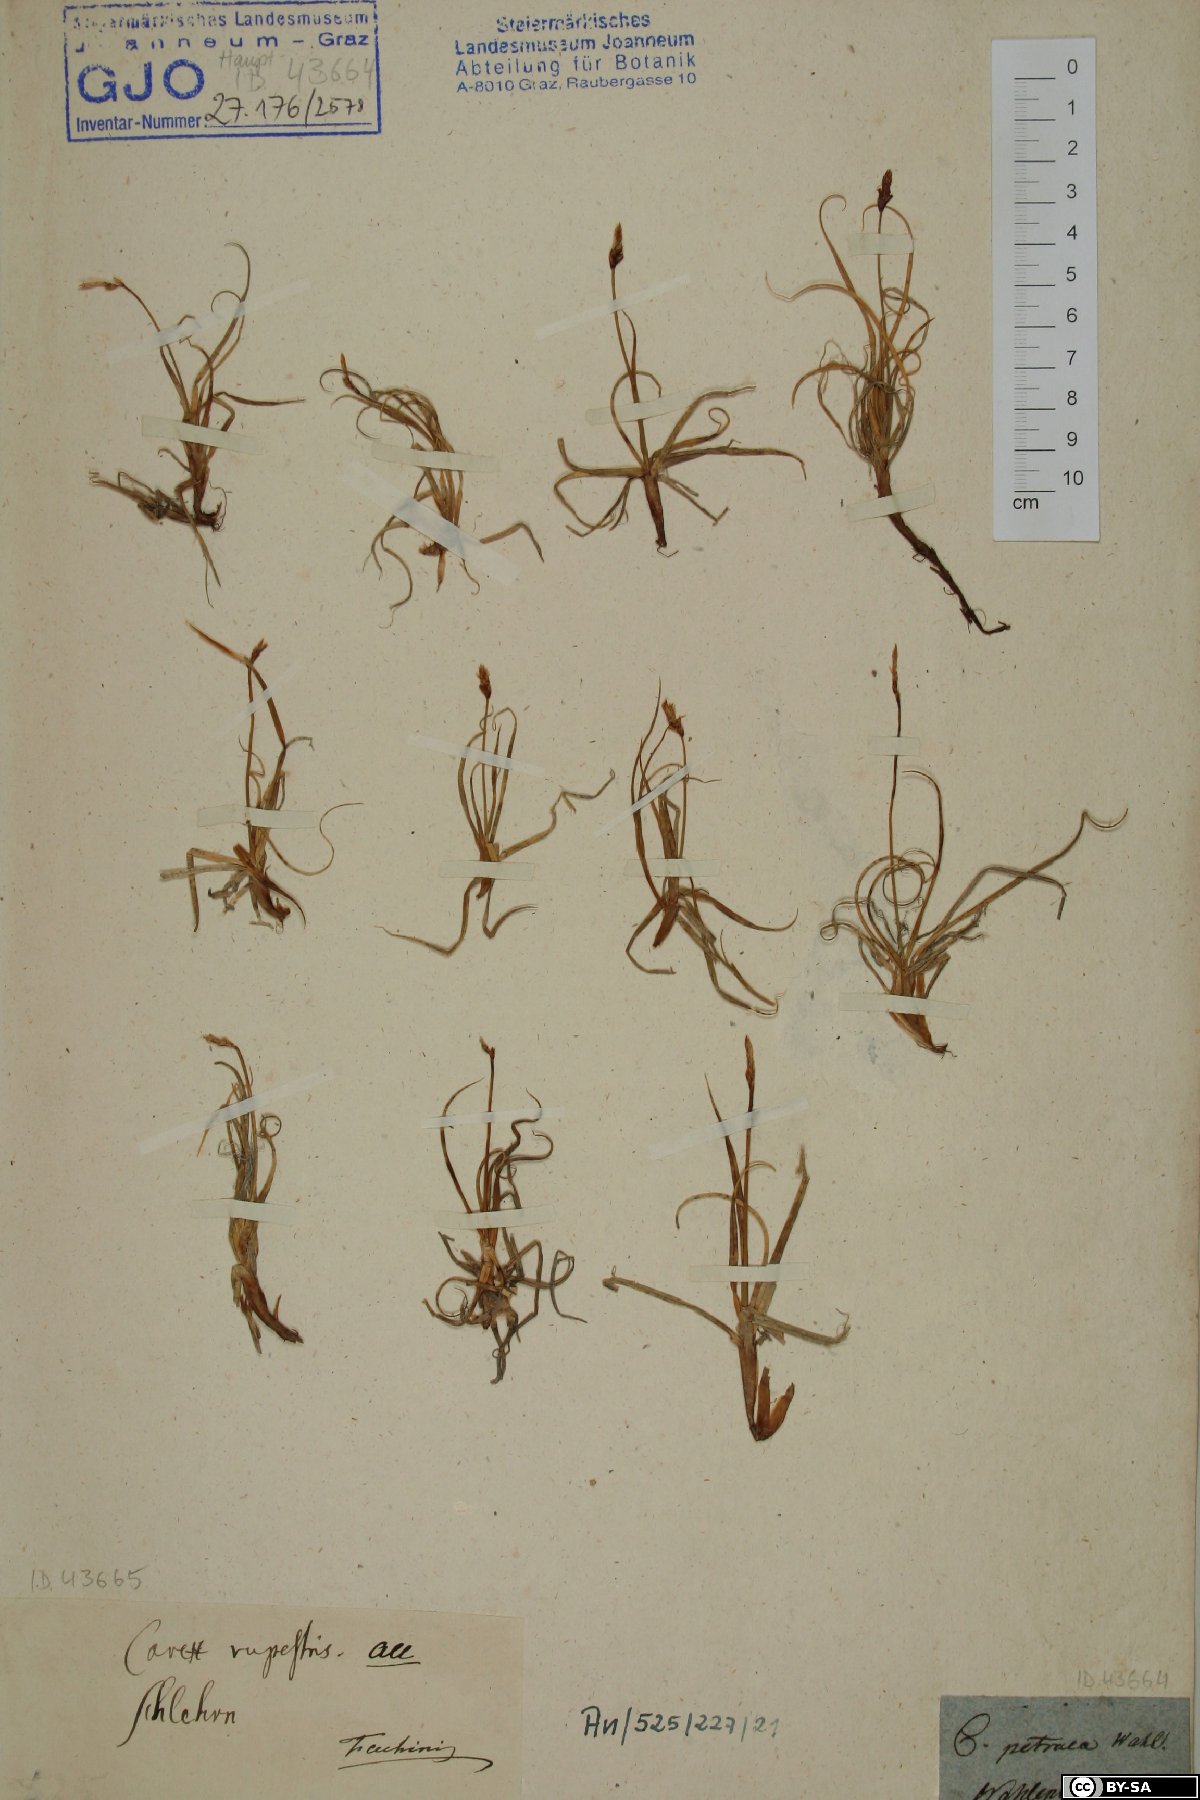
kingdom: Plantae
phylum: Tracheophyta
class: Liliopsida
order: Poales
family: Cyperaceae
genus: Carex
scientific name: Carex rupestris
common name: Rock sedge
